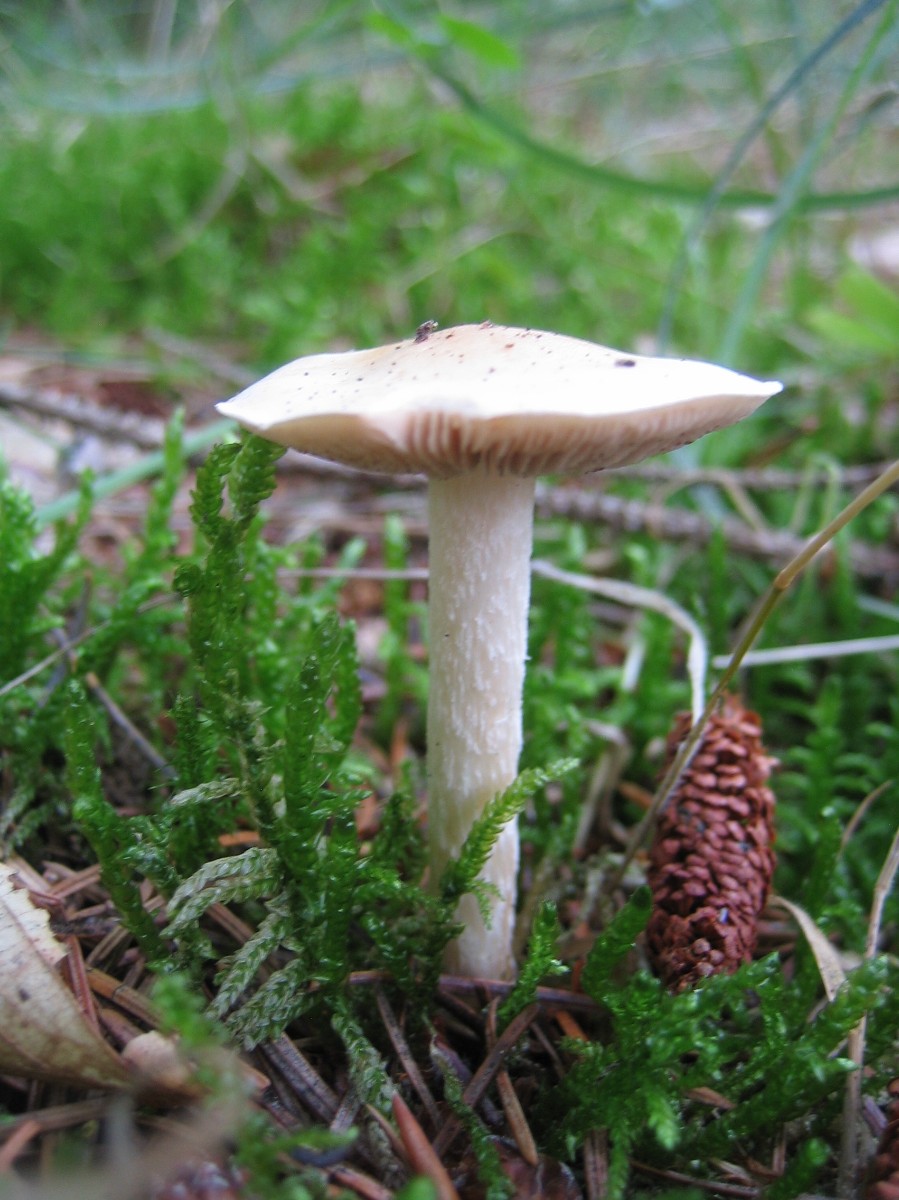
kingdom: Fungi
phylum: Basidiomycota
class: Agaricomycetes
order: Agaricales
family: Hymenogastraceae
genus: Hebeloma
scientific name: Hebeloma
